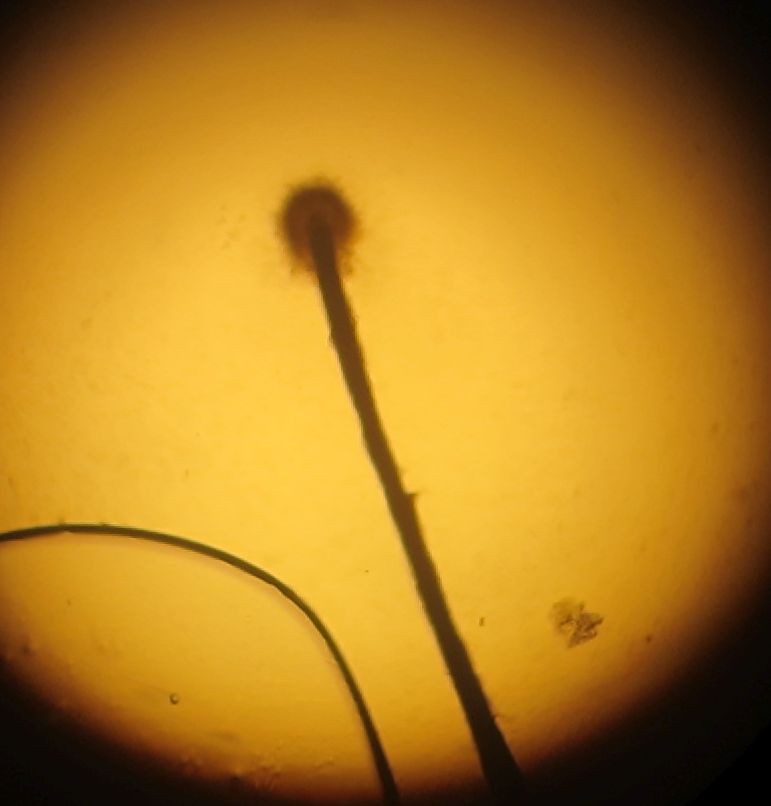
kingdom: Fungi
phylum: Ascomycota
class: Eurotiomycetes
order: Chaetothyriales
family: Herpotrichiellaceae
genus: Exophiala
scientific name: Exophiala calicioides
